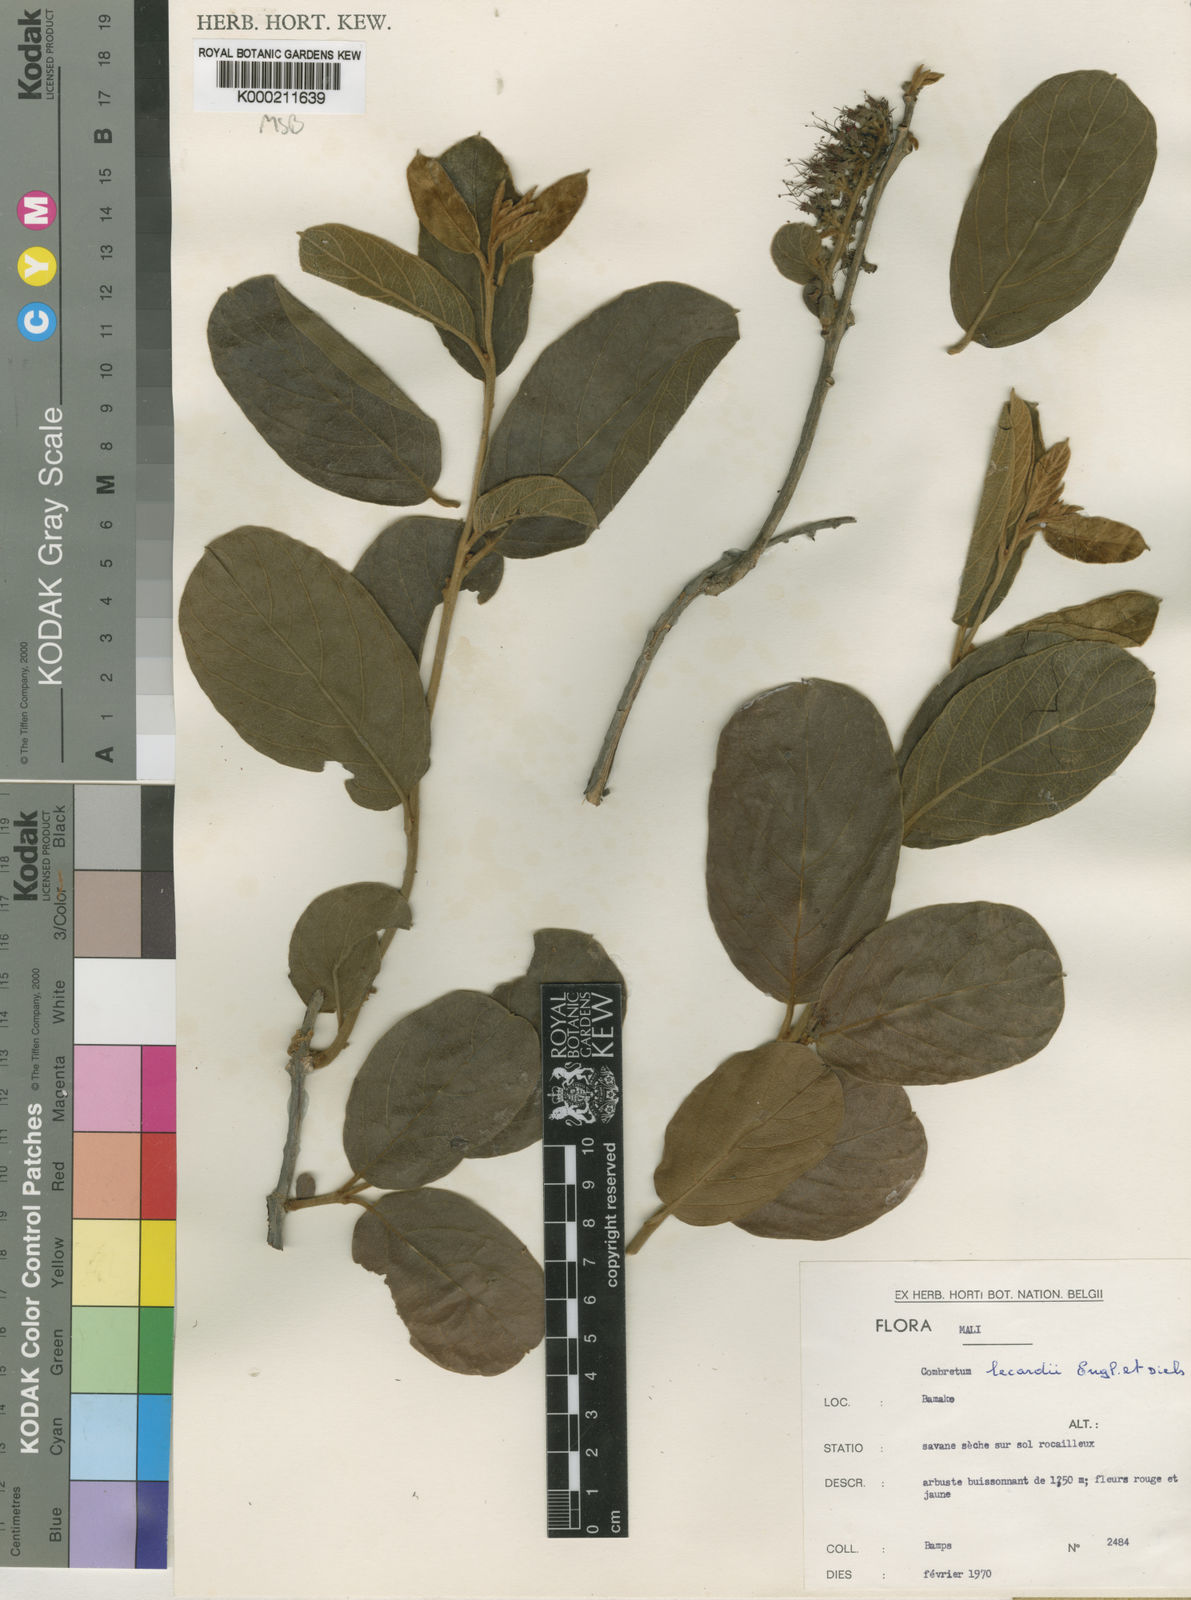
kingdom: Plantae
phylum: Tracheophyta
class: Magnoliopsida
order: Myrtales
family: Combretaceae
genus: Combretum
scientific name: Combretum lecardii
